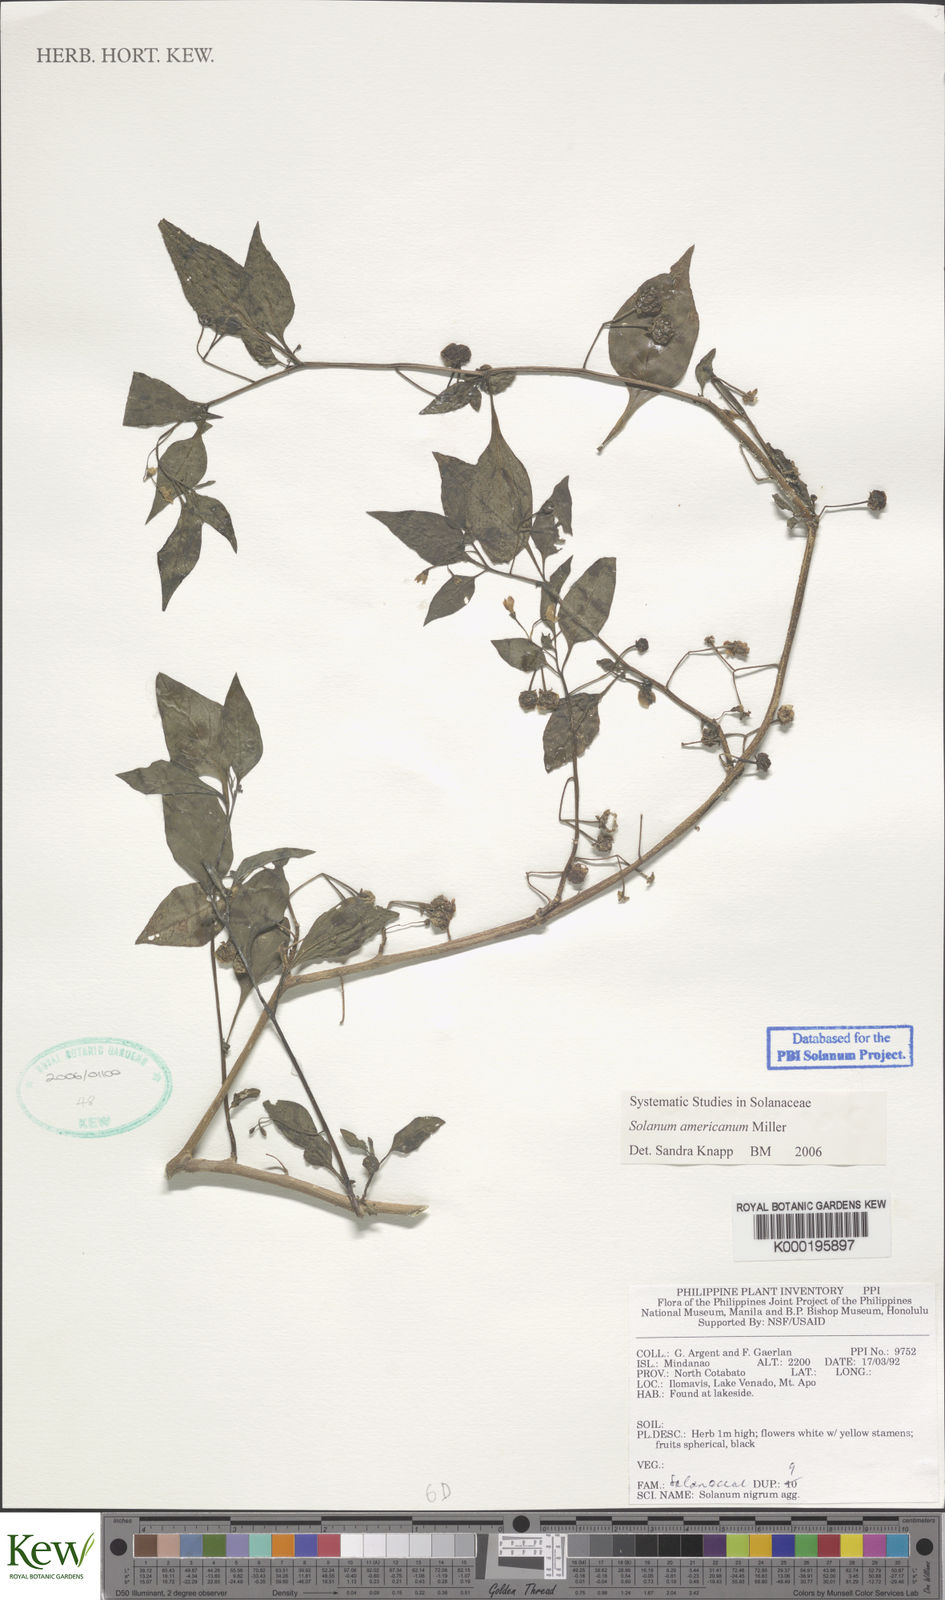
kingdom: Plantae
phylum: Tracheophyta
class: Magnoliopsida
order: Solanales
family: Solanaceae
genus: Solanum
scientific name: Solanum nigrum
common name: Black nightshade
